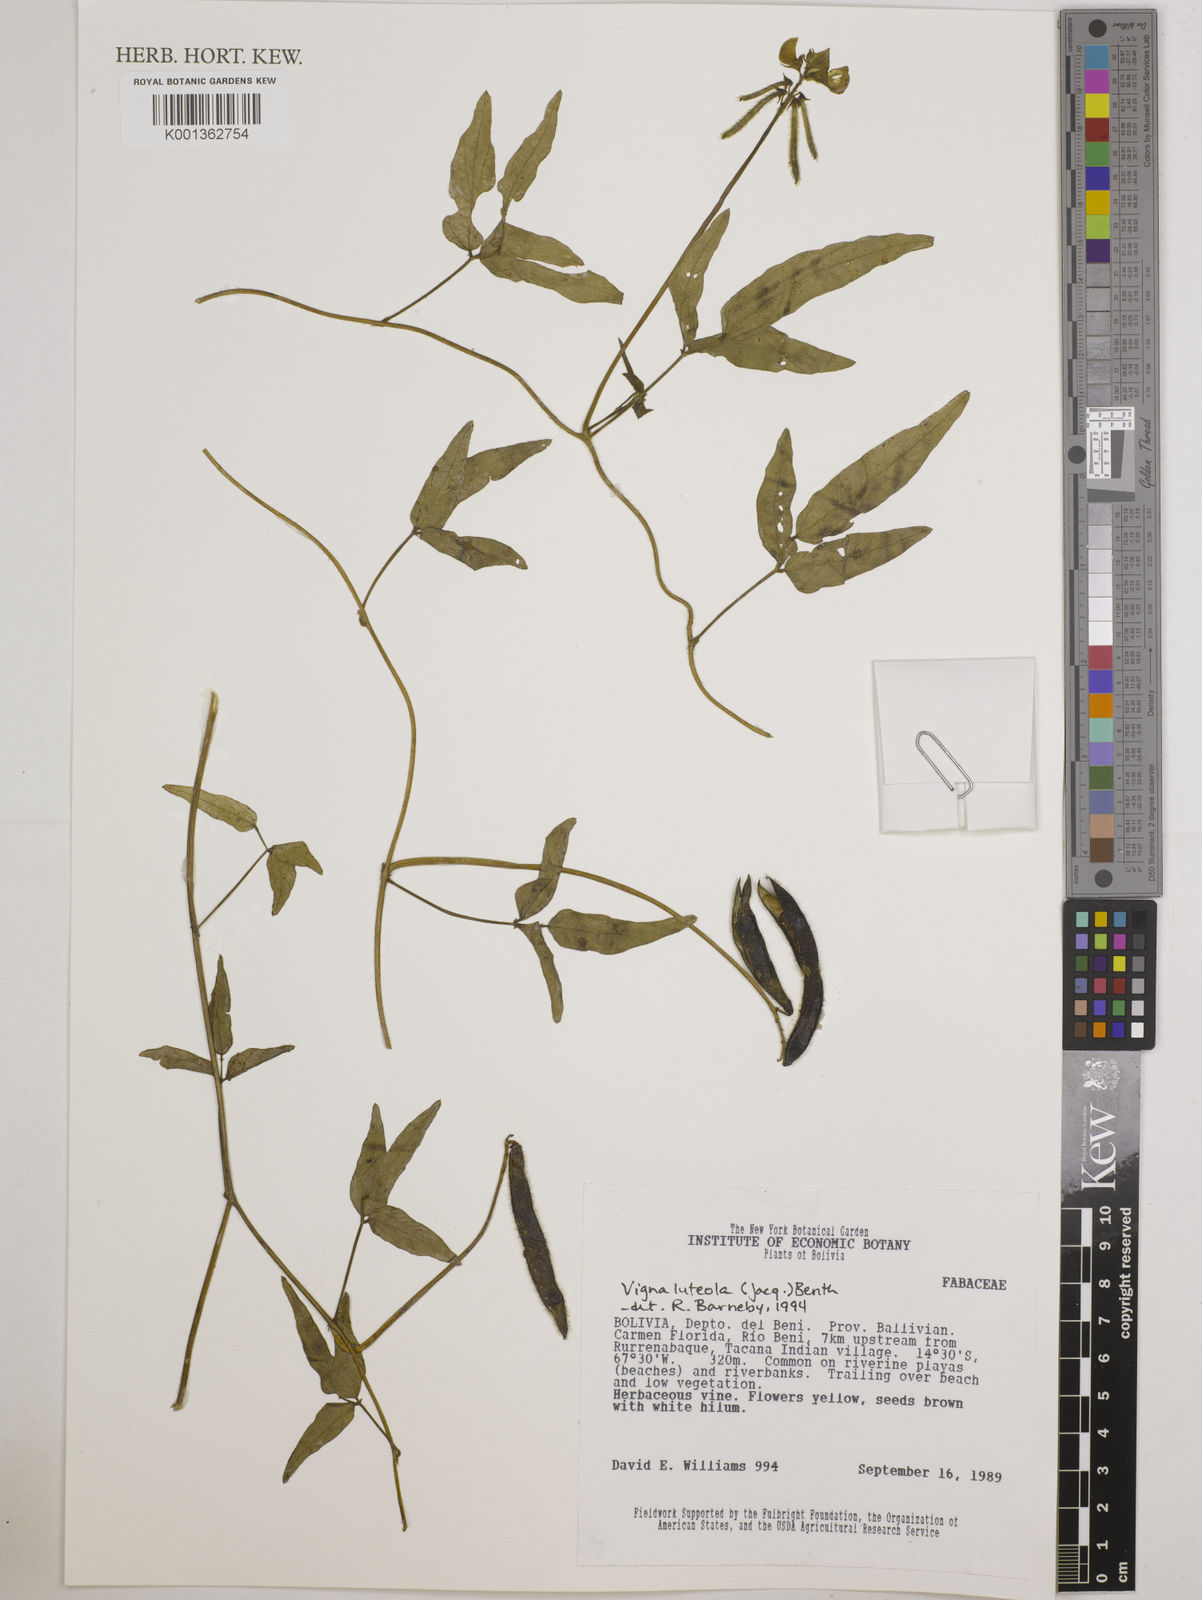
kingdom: Plantae
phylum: Tracheophyta
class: Magnoliopsida
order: Fabales
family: Fabaceae
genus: Vigna
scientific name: Vigna luteola
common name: Hairypod cowpea
